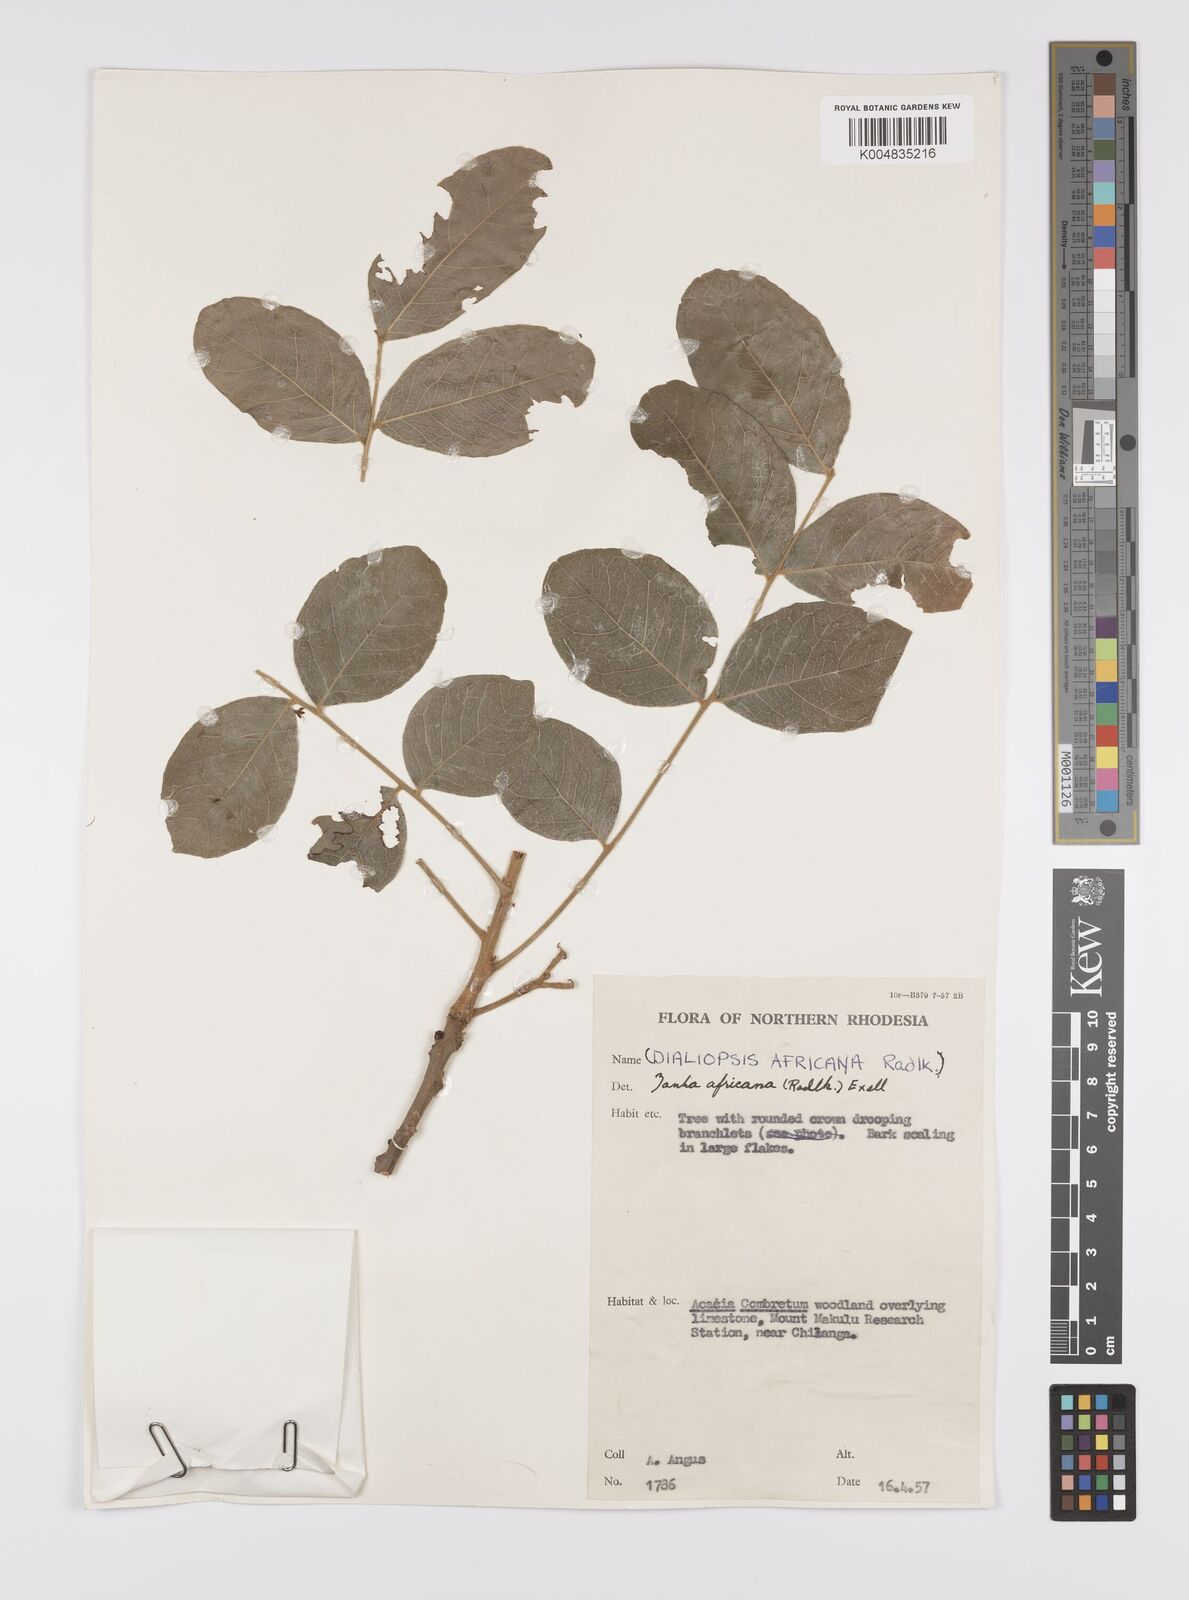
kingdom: Plantae
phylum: Tracheophyta
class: Magnoliopsida
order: Sapindales
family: Sapindaceae
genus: Zanha
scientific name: Zanha africana
